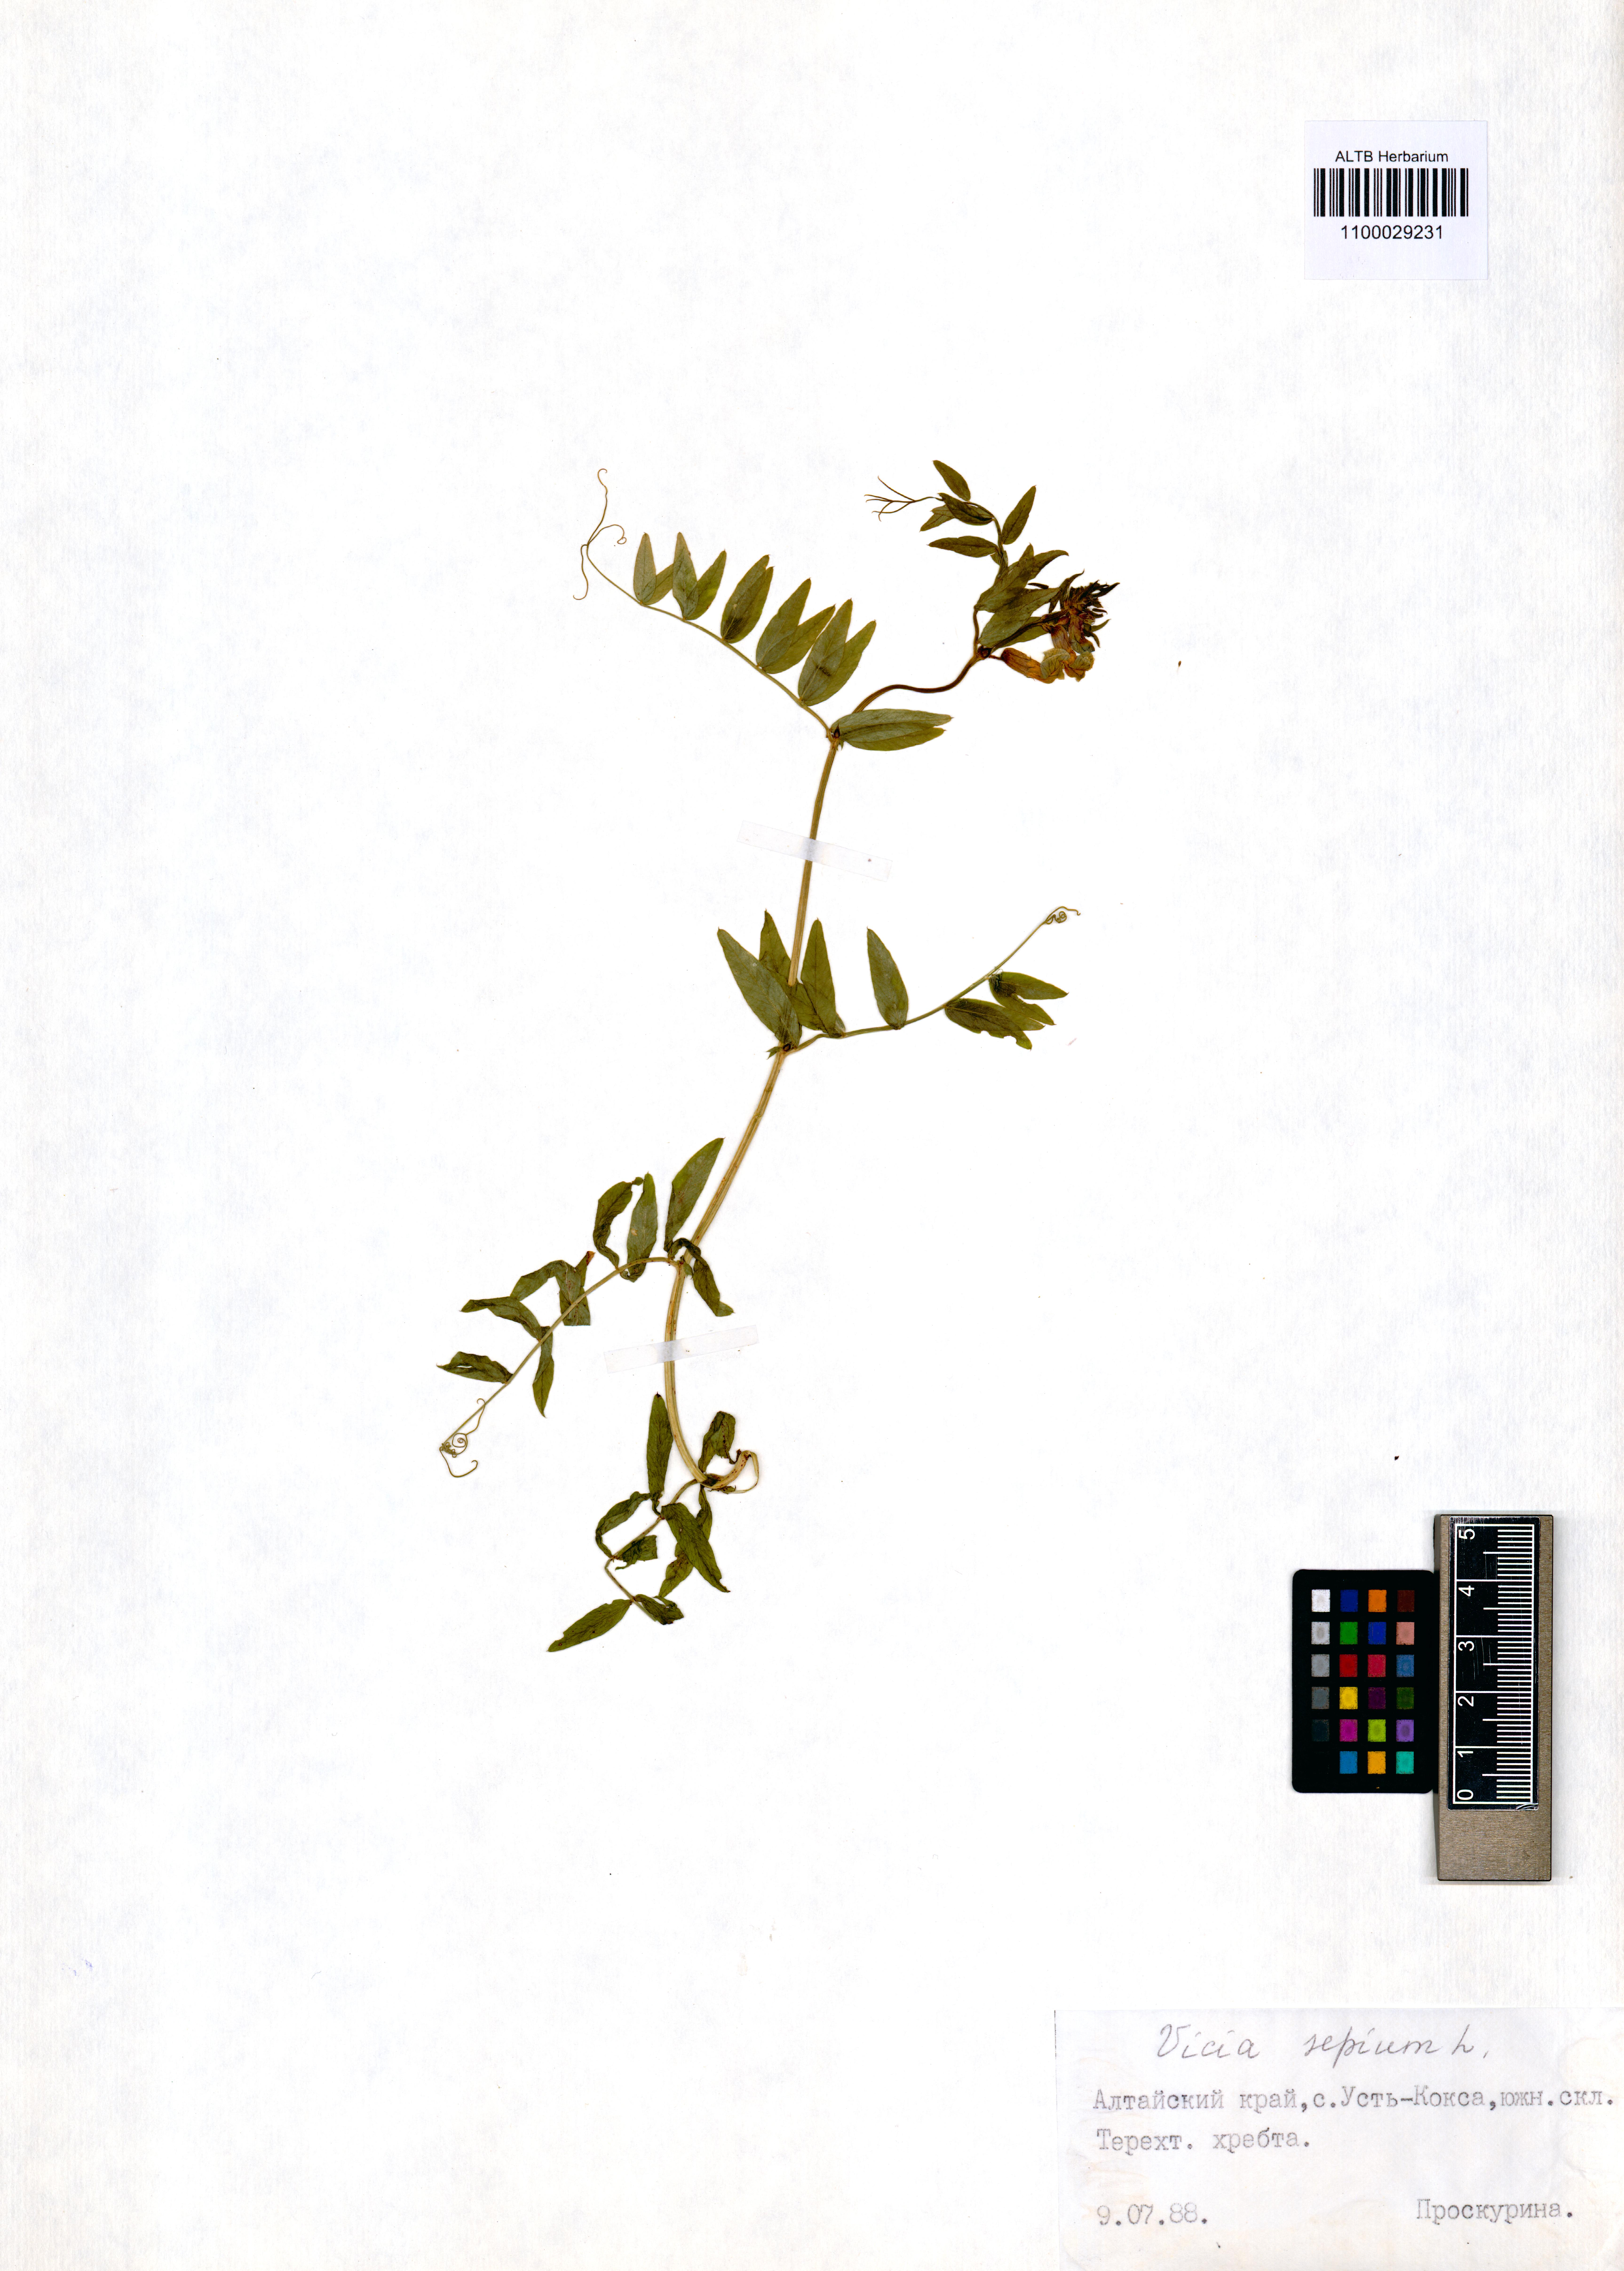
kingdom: Plantae
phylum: Tracheophyta
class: Magnoliopsida
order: Fabales
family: Fabaceae
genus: Vicia
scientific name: Vicia sepium
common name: Bush vetch
